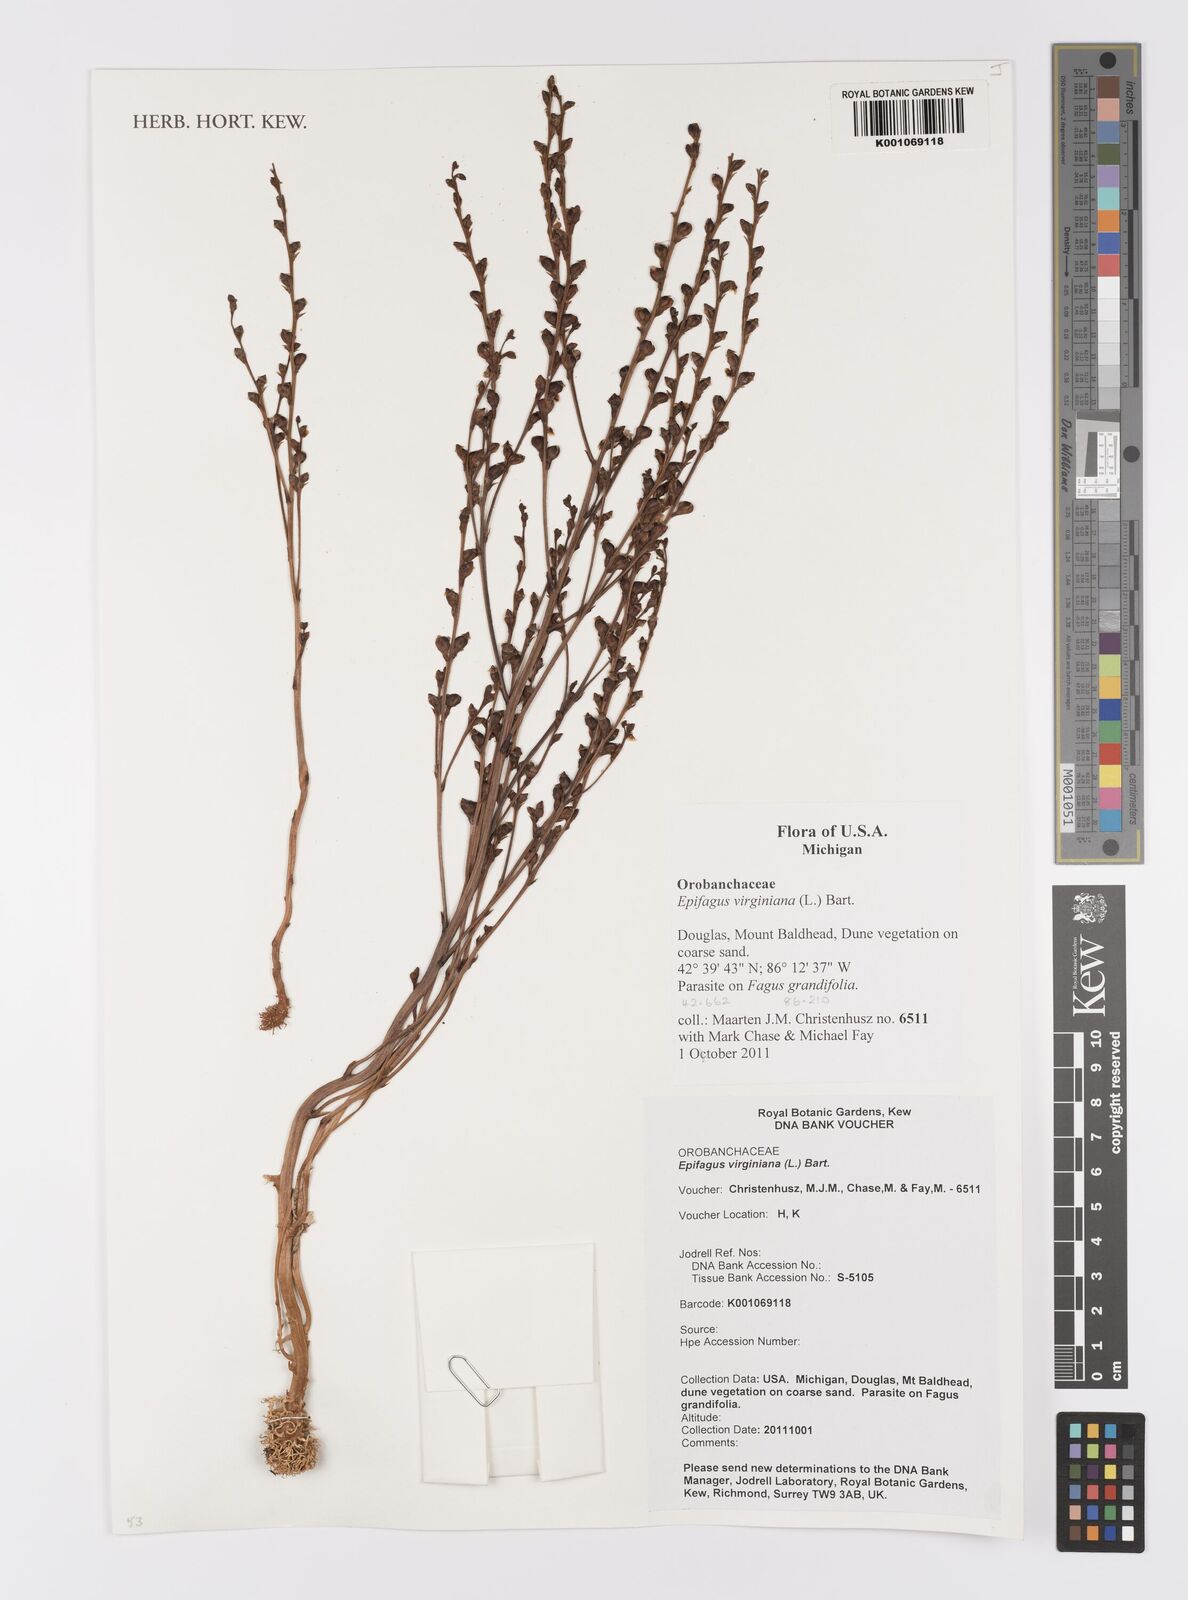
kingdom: Plantae
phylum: Tracheophyta
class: Magnoliopsida
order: Lamiales
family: Orobanchaceae
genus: Epifagus
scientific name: Epifagus virginiana
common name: Beechdrops
